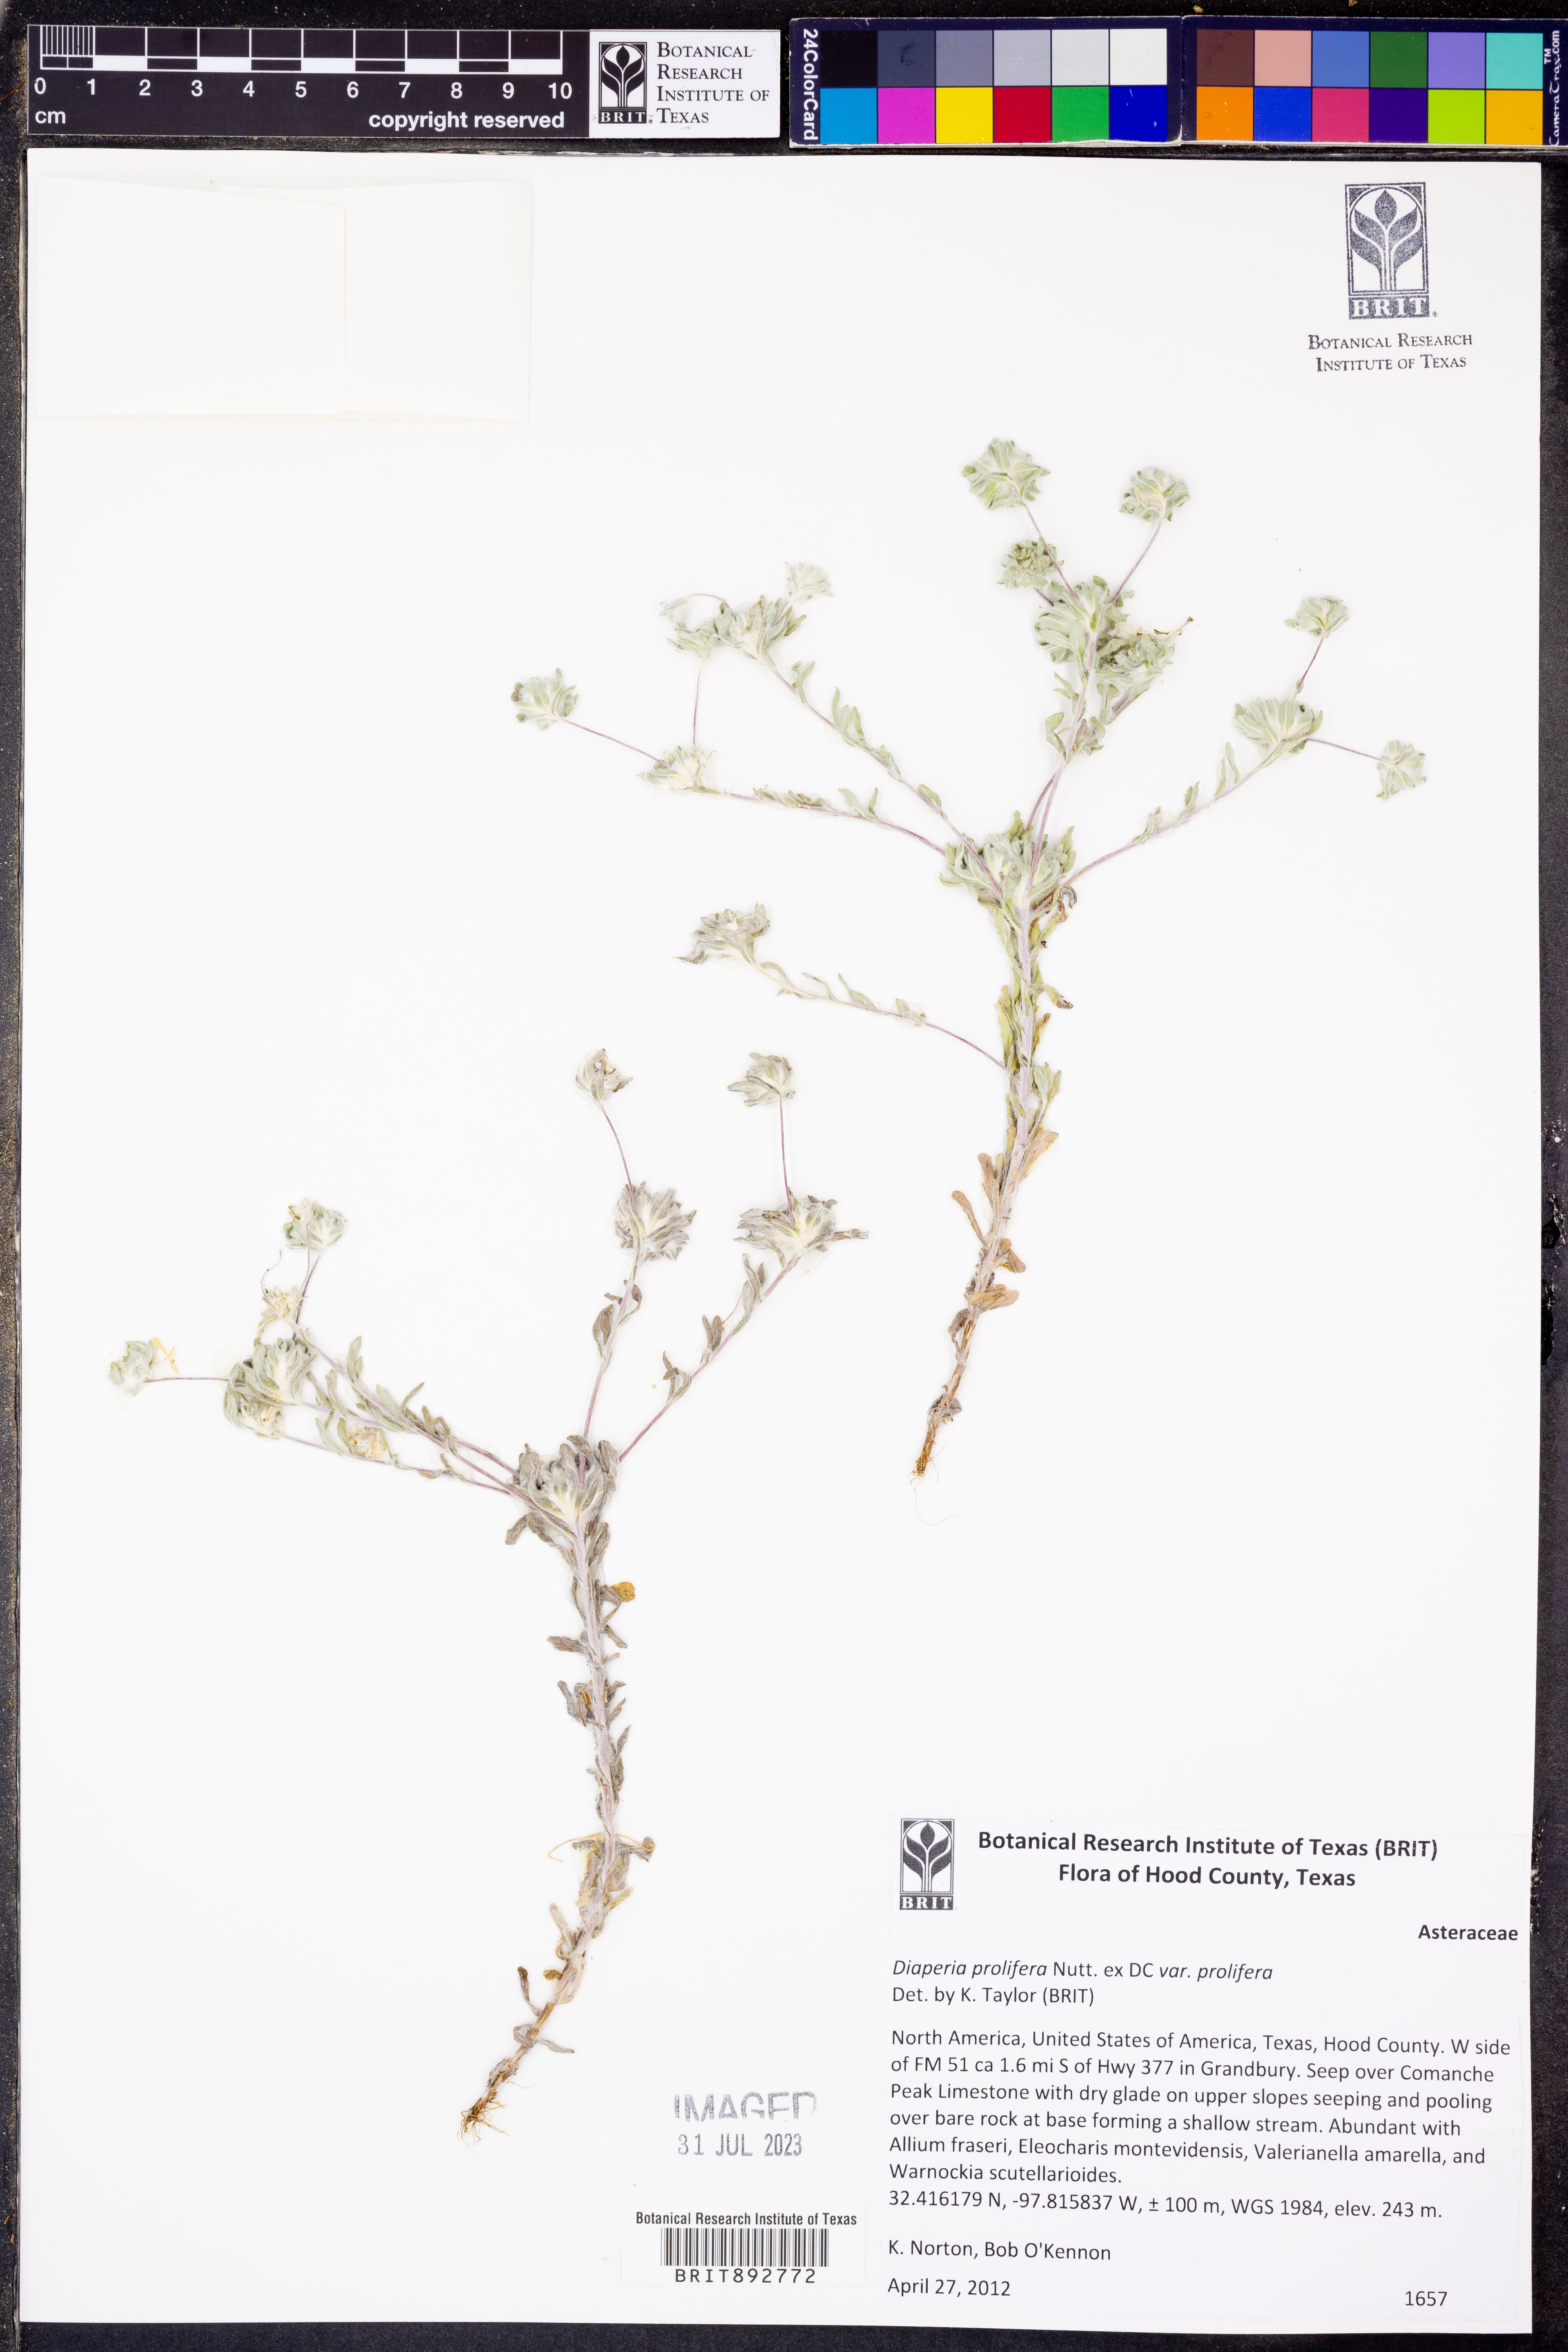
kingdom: Plantae
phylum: Tracheophyta
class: Magnoliopsida
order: Asterales
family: Asteraceae
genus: Diaperia
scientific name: Diaperia prolifera
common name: Big-head rabbit-tobacco
